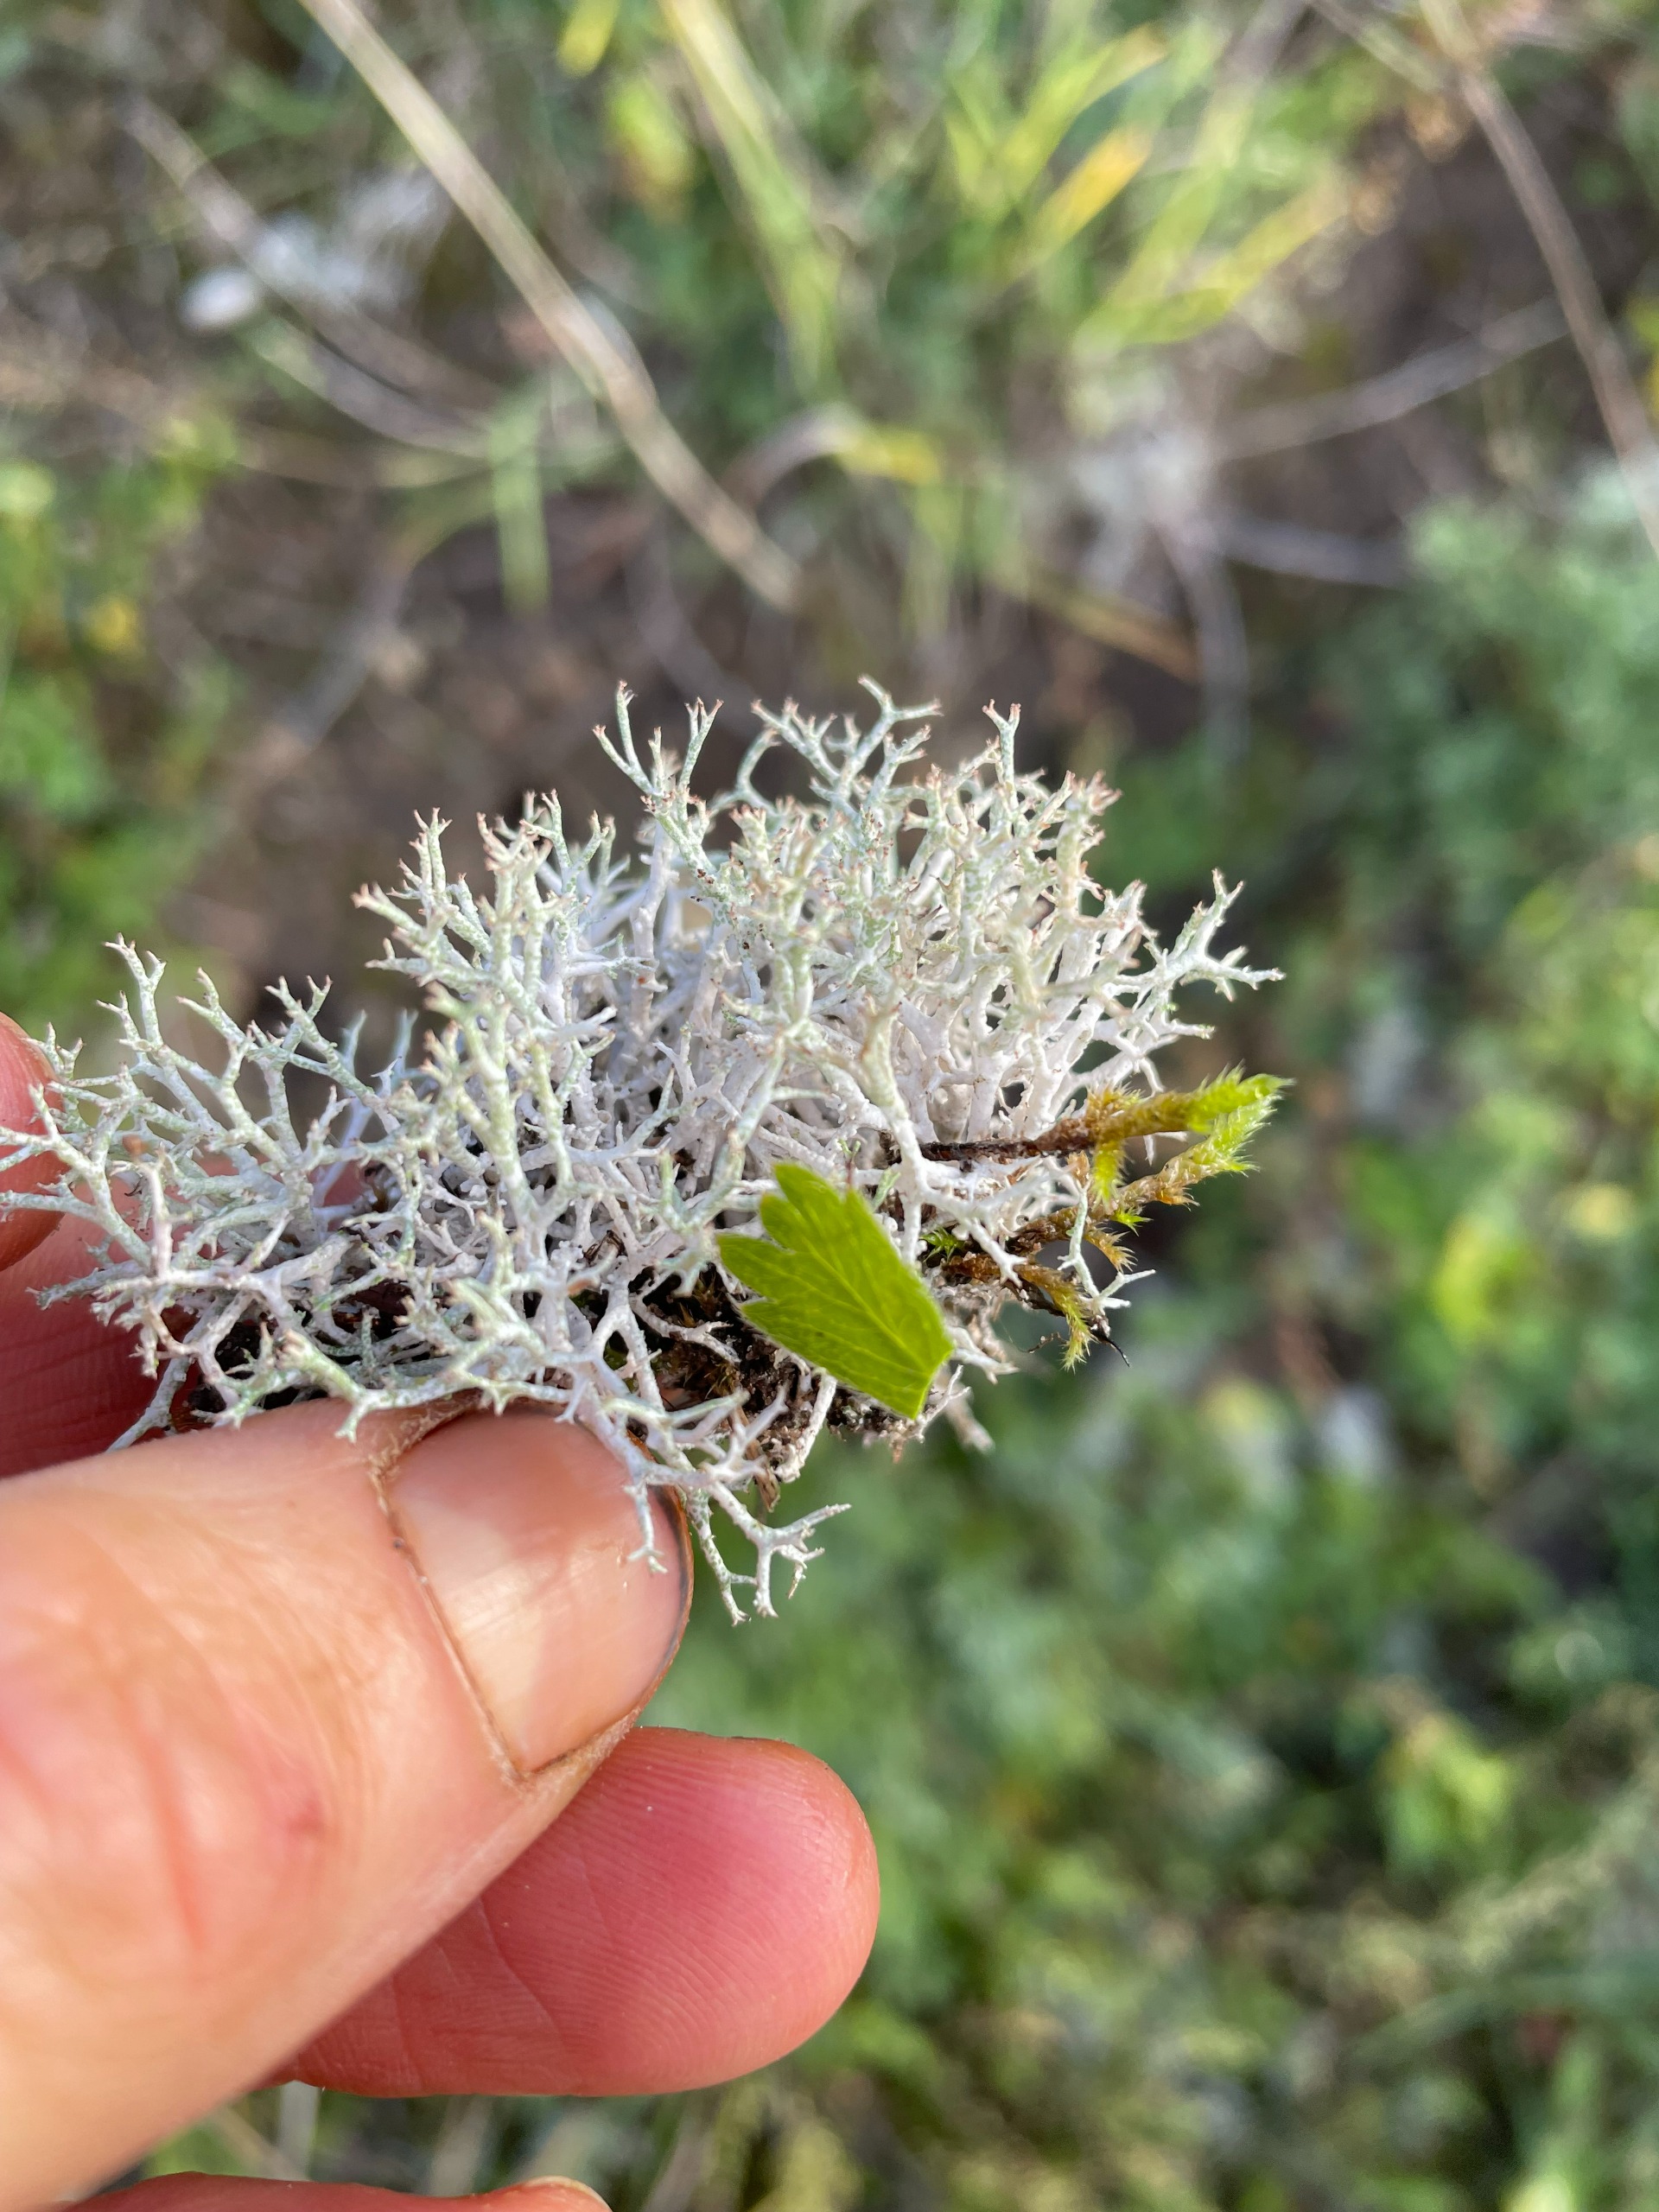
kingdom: Fungi
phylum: Ascomycota
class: Lecanoromycetes
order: Lecanorales
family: Cladoniaceae
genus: Cladonia
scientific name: Cladonia rangiformis
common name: Spættet bægerlav
